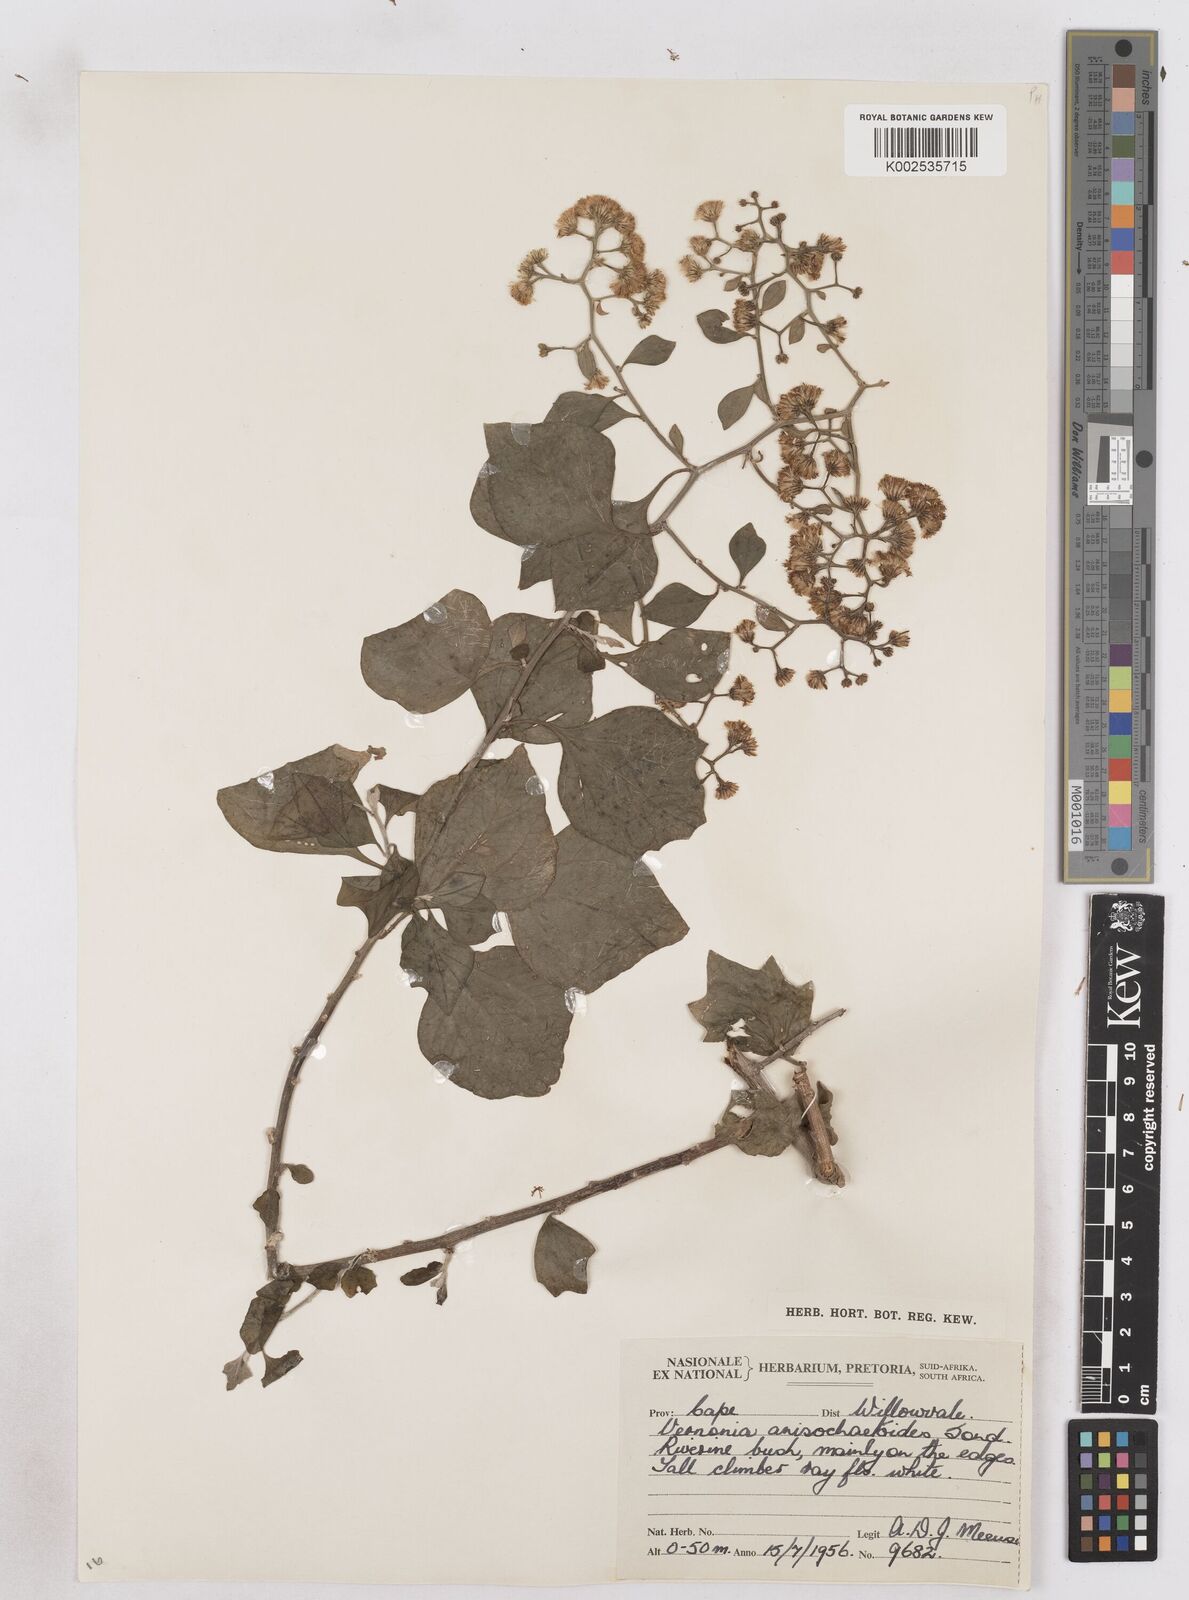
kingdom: Plantae
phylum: Tracheophyta
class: Magnoliopsida
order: Asterales
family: Asteraceae
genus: Distephanus
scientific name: Distephanus anisochaetoides
